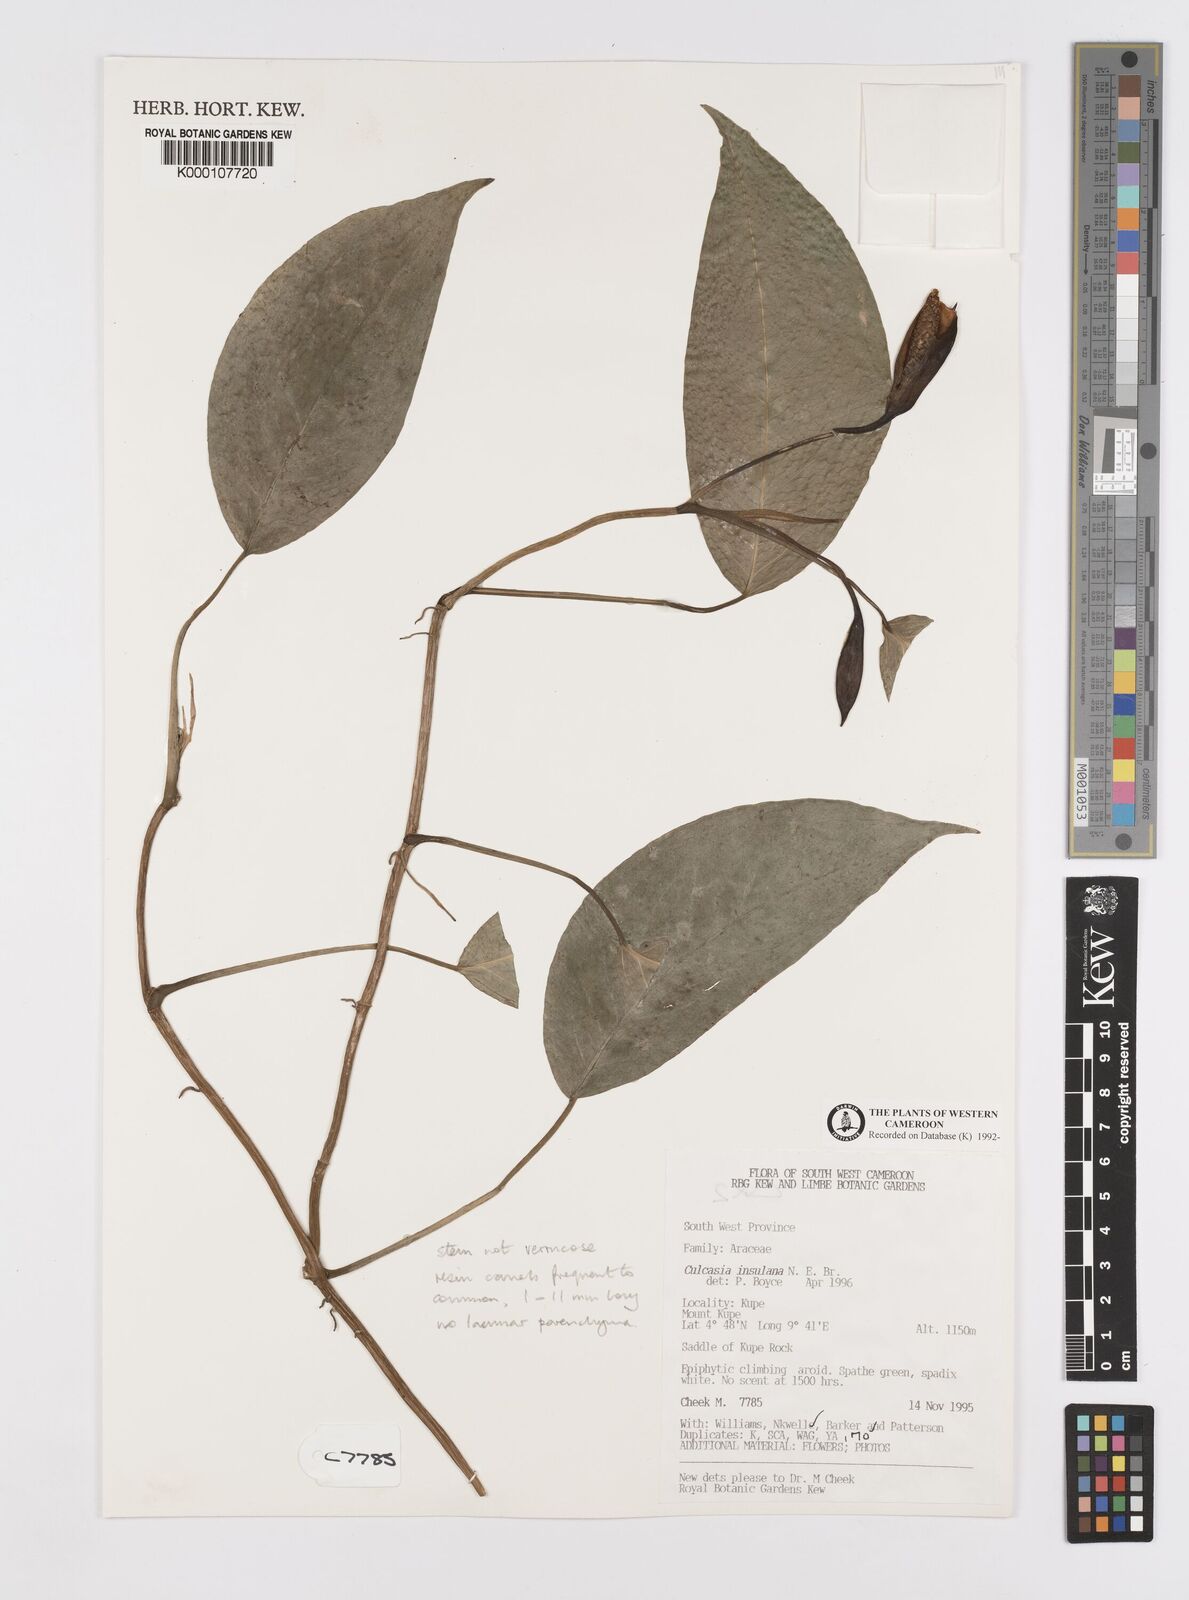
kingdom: Plantae
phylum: Tracheophyta
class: Liliopsida
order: Alismatales
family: Araceae
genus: Culcasia
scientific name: Culcasia insulana
